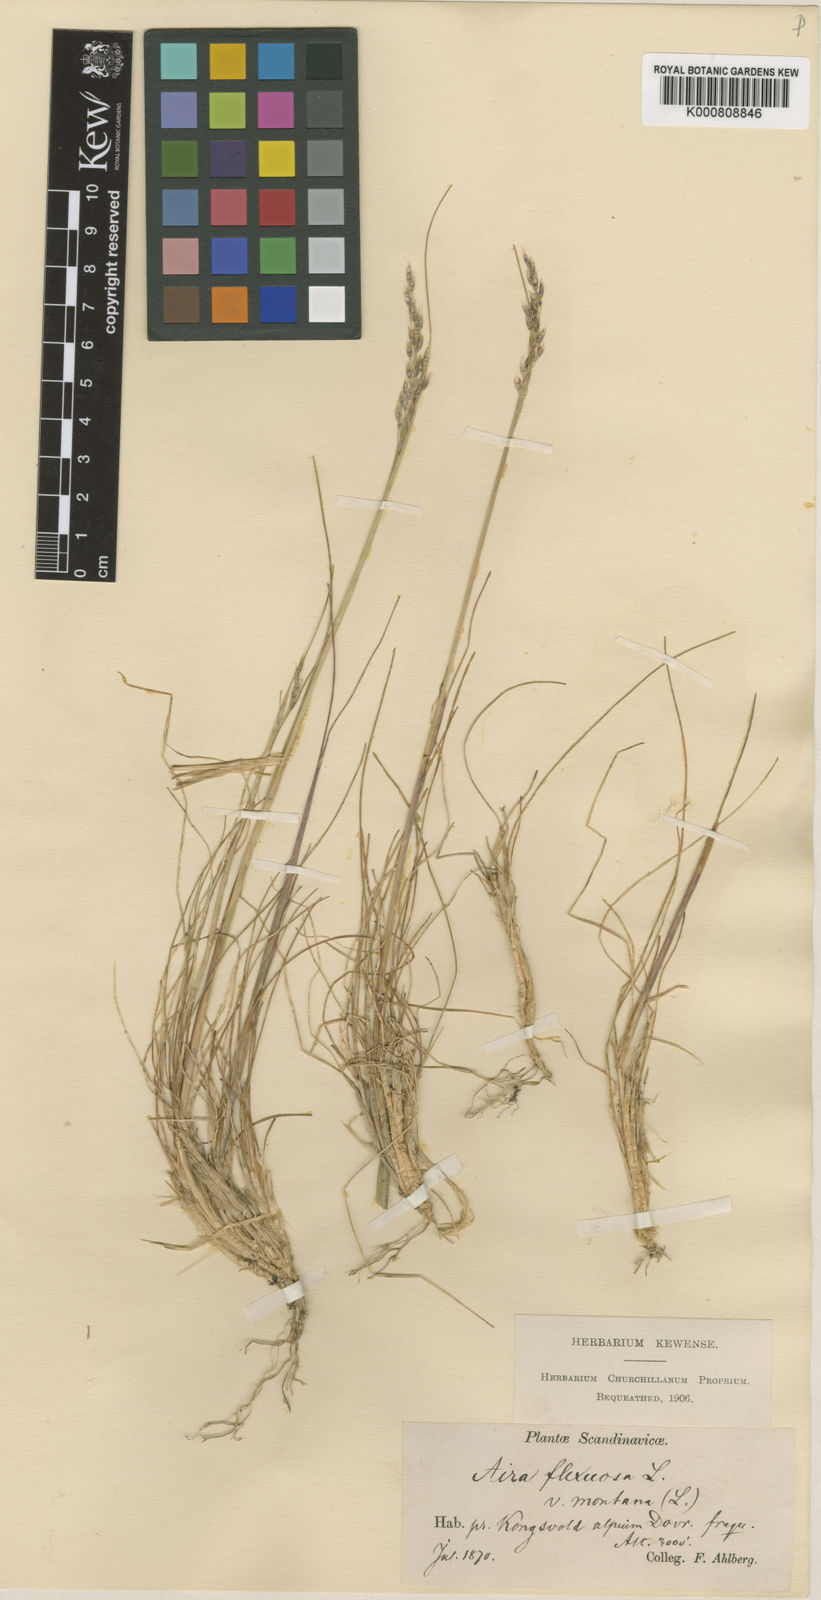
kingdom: Plantae
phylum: Tracheophyta
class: Liliopsida
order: Poales
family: Poaceae
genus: Avenella
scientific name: Avenella flexuosa
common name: Wavy hairgrass
